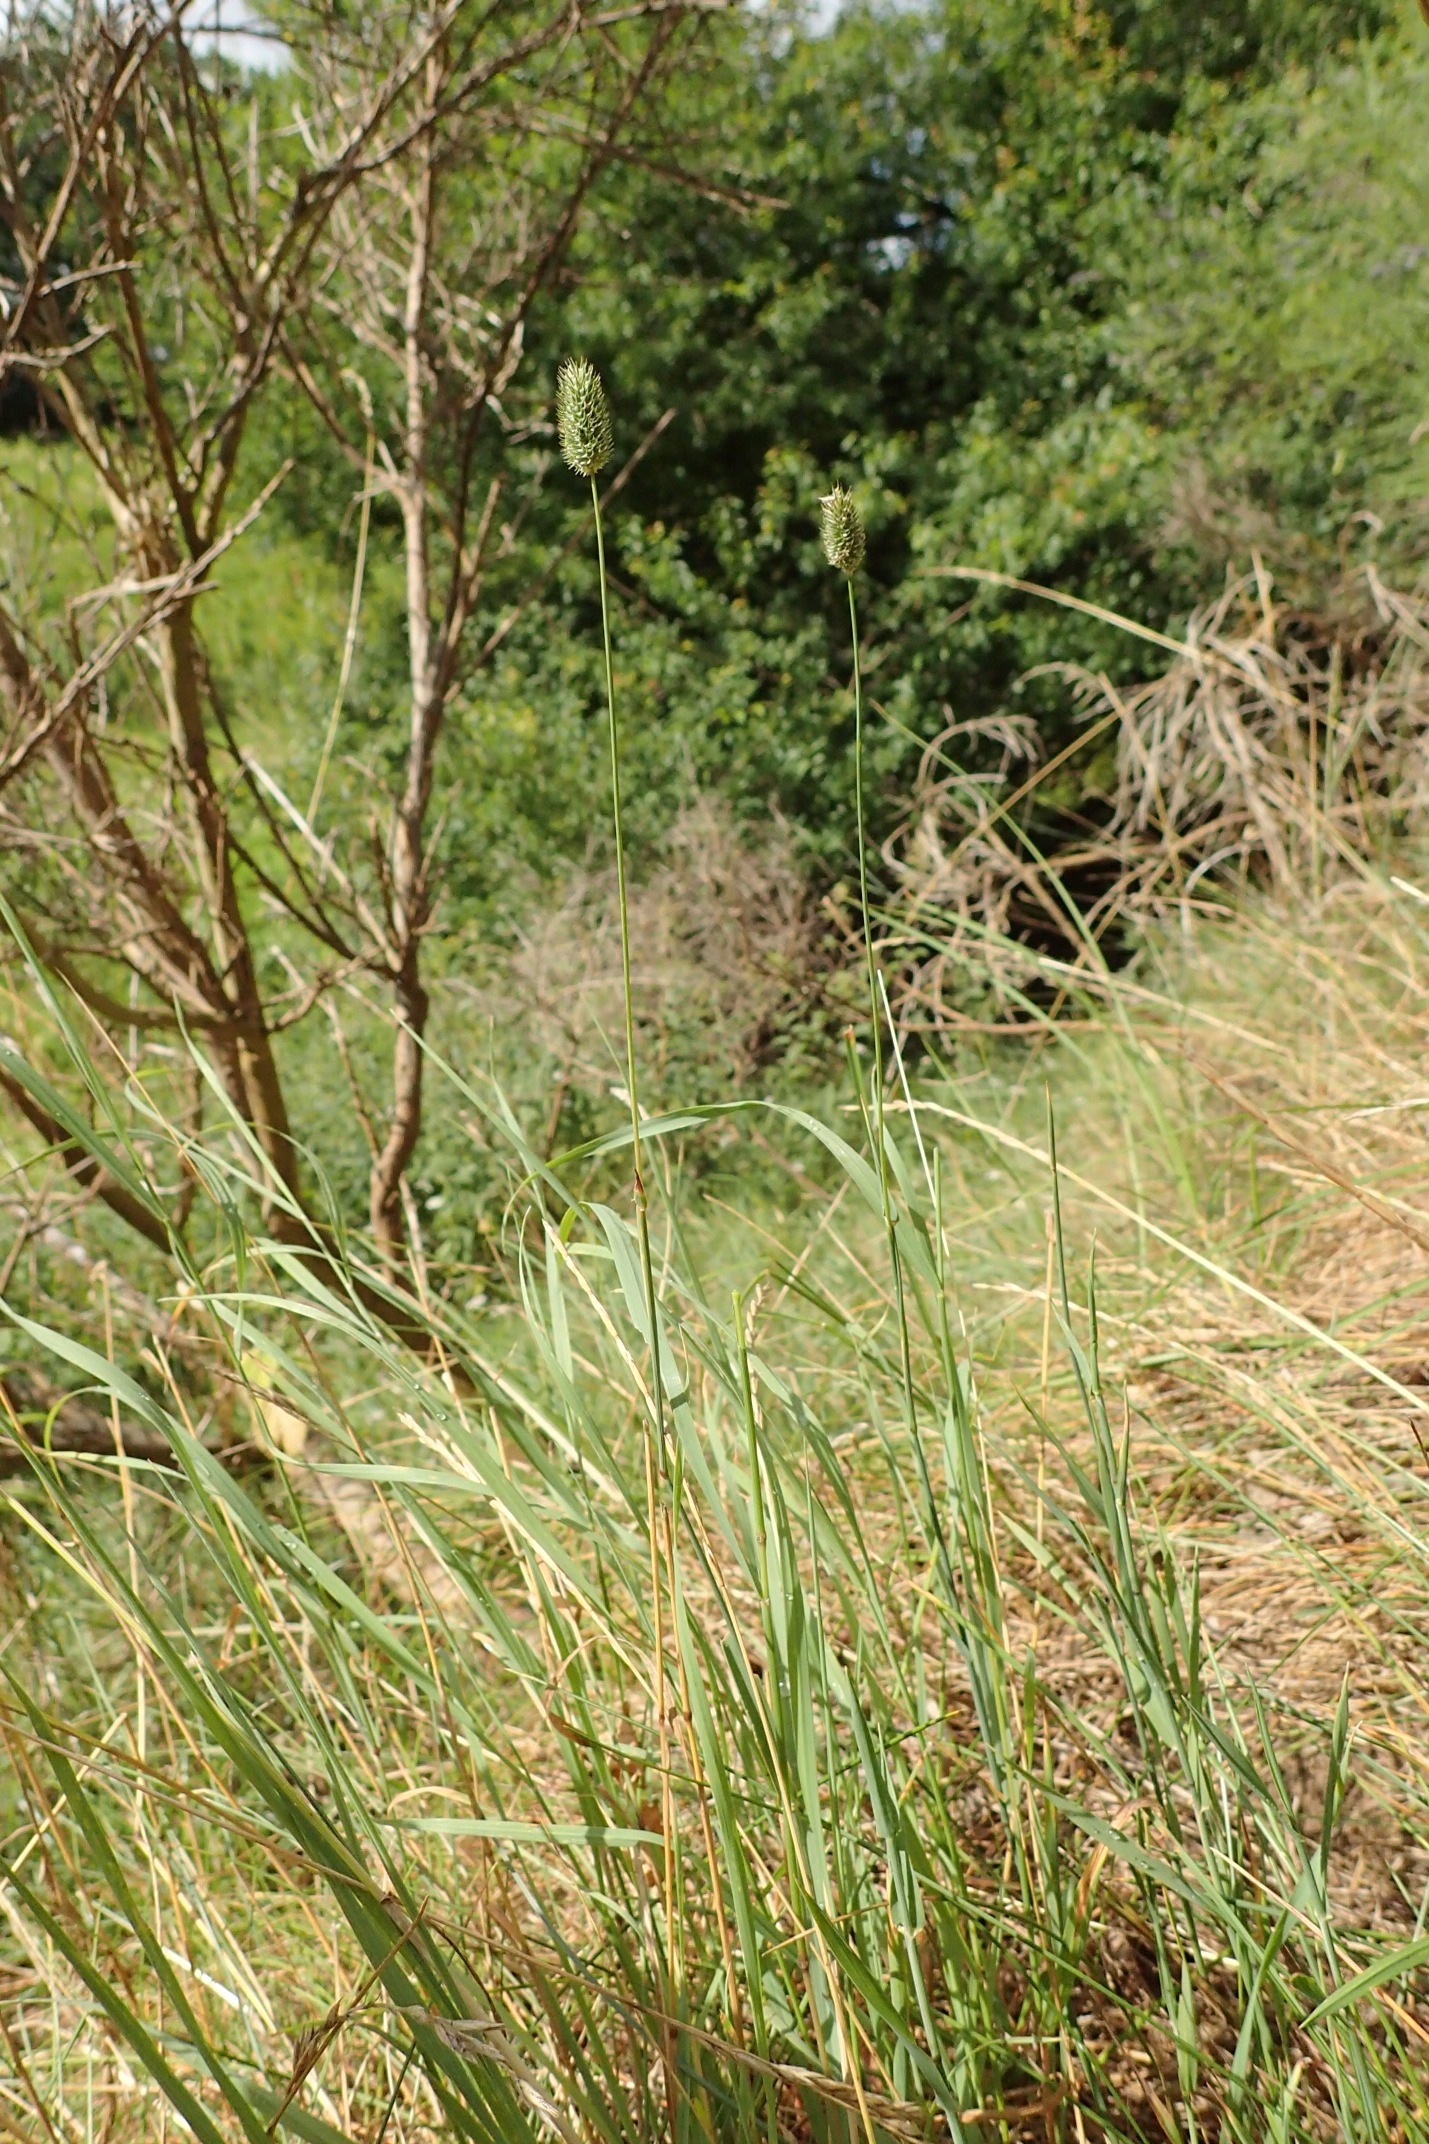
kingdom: Plantae
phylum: Tracheophyta
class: Liliopsida
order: Poales
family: Poaceae
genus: Phleum
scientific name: Phleum pratense
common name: Knold-rottehale
